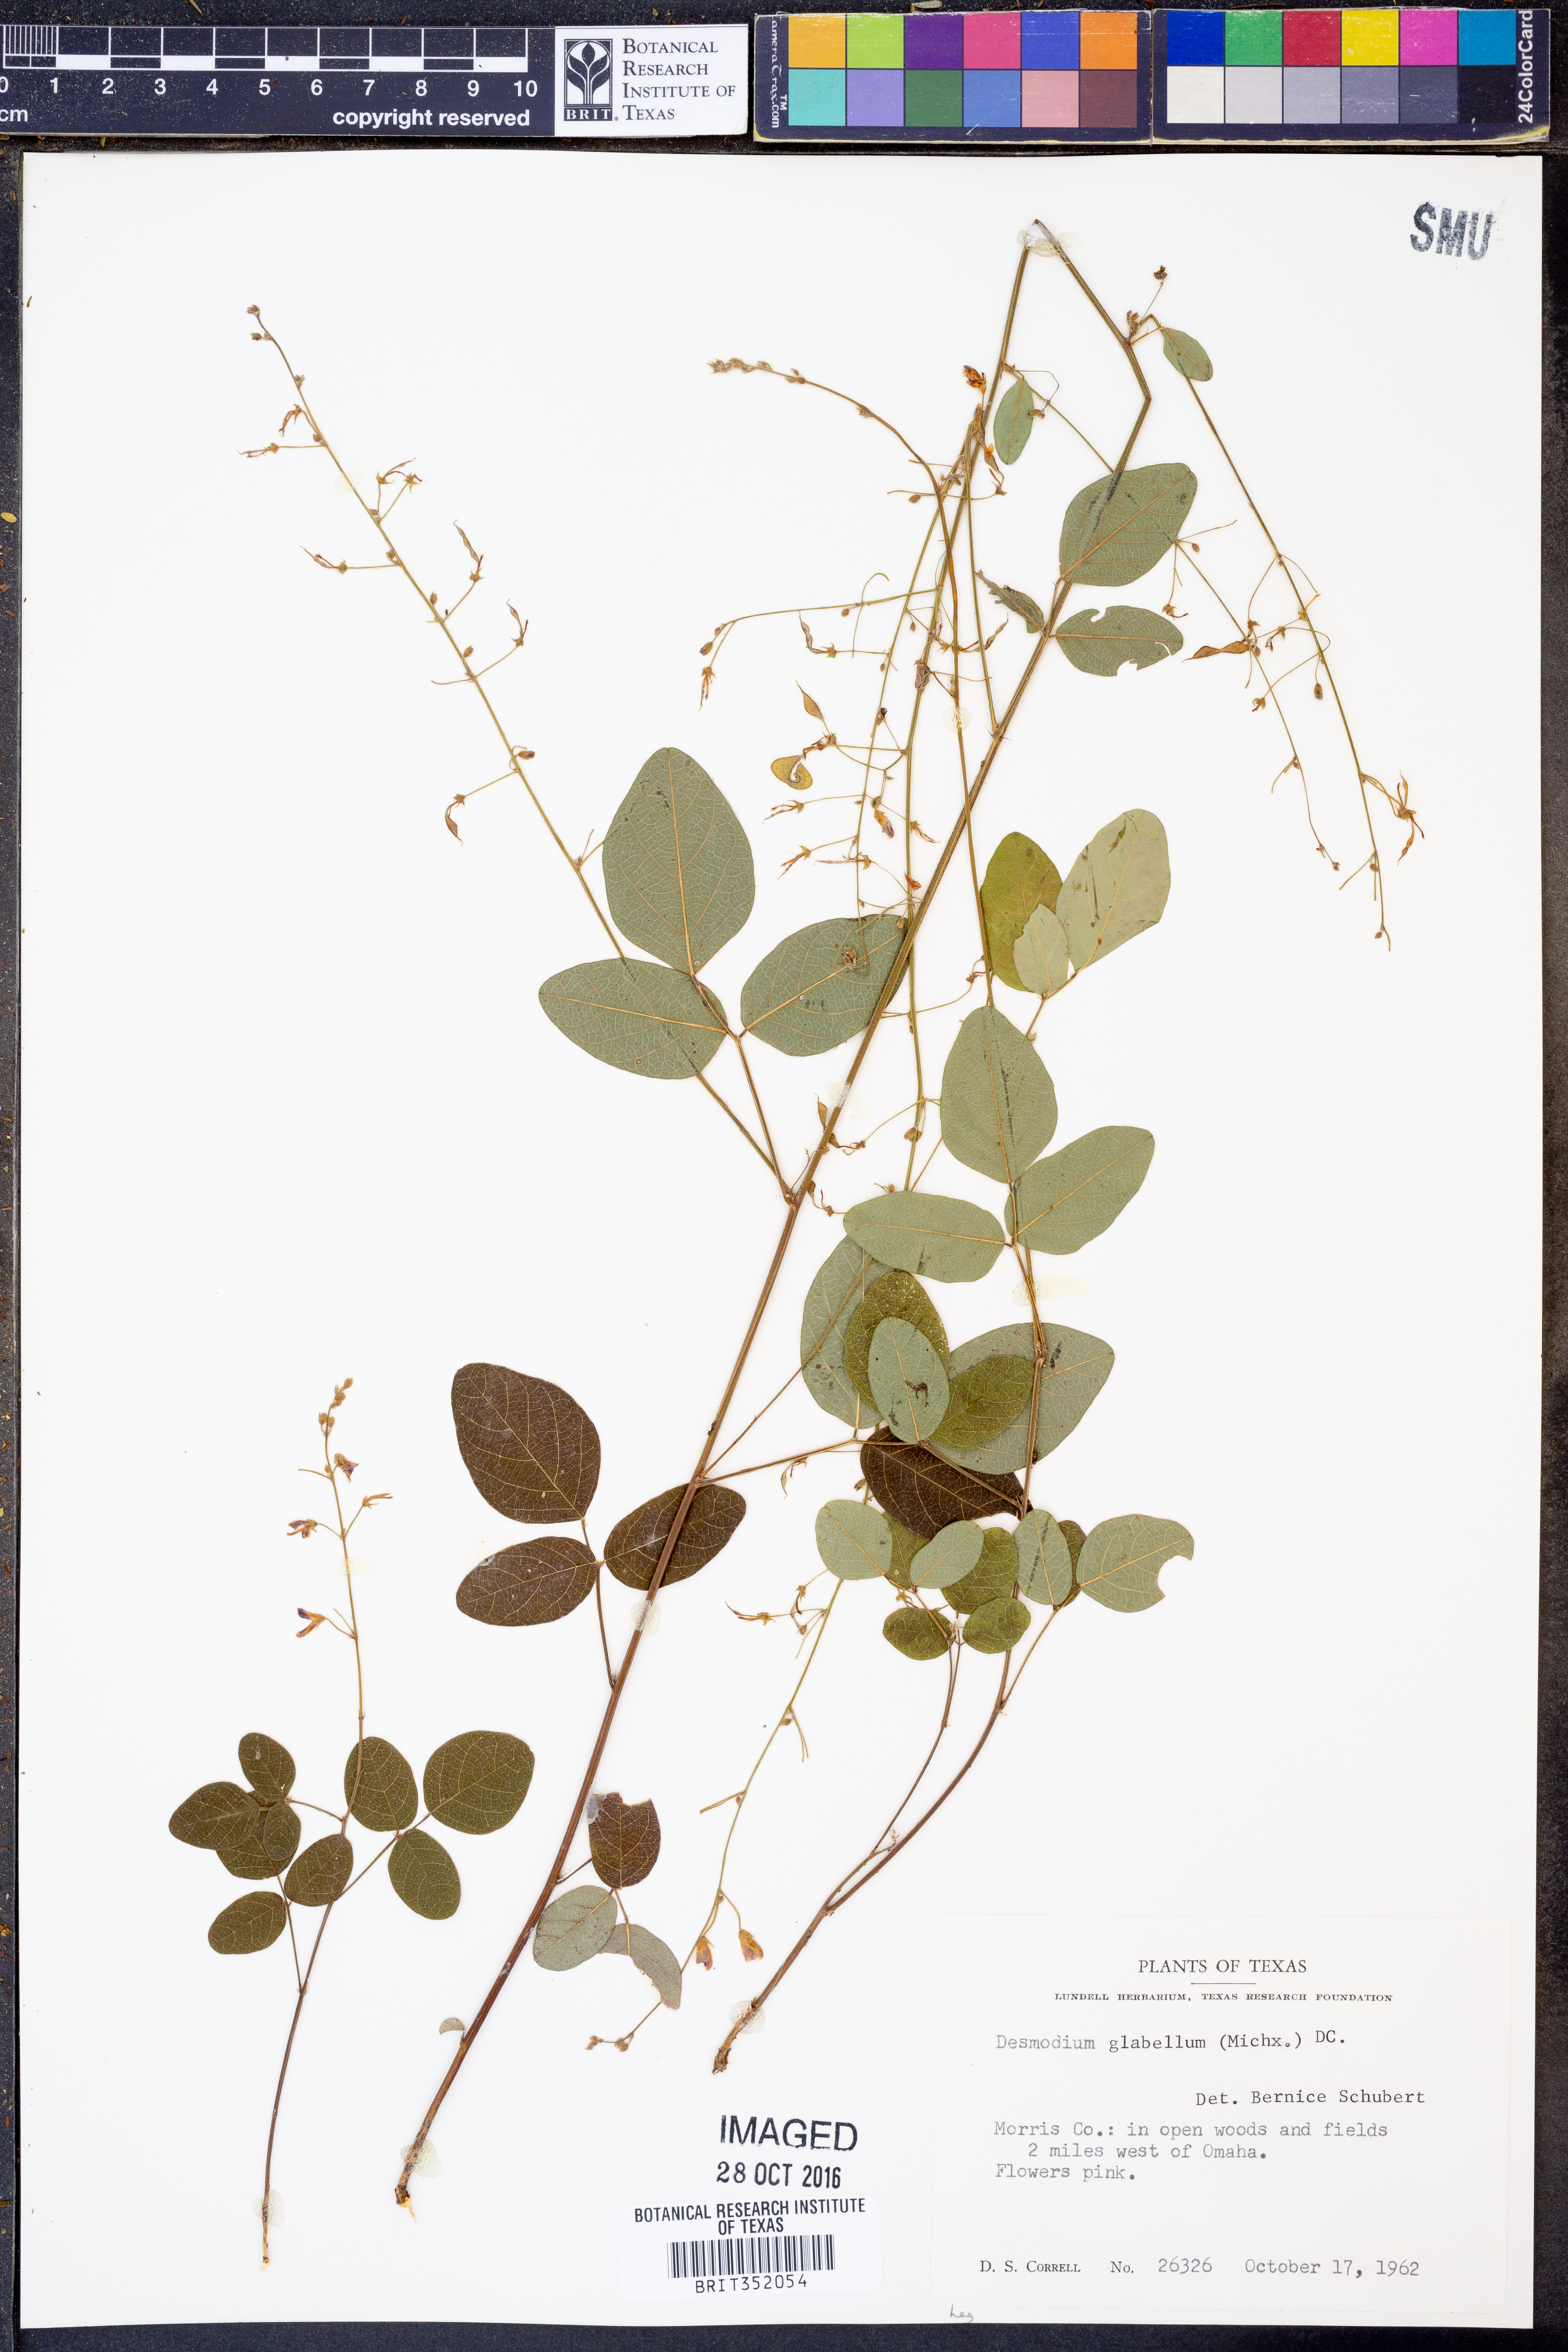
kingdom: Plantae
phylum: Tracheophyta
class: Magnoliopsida
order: Fabales
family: Fabaceae
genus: Desmodium
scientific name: Desmodium glabellum
